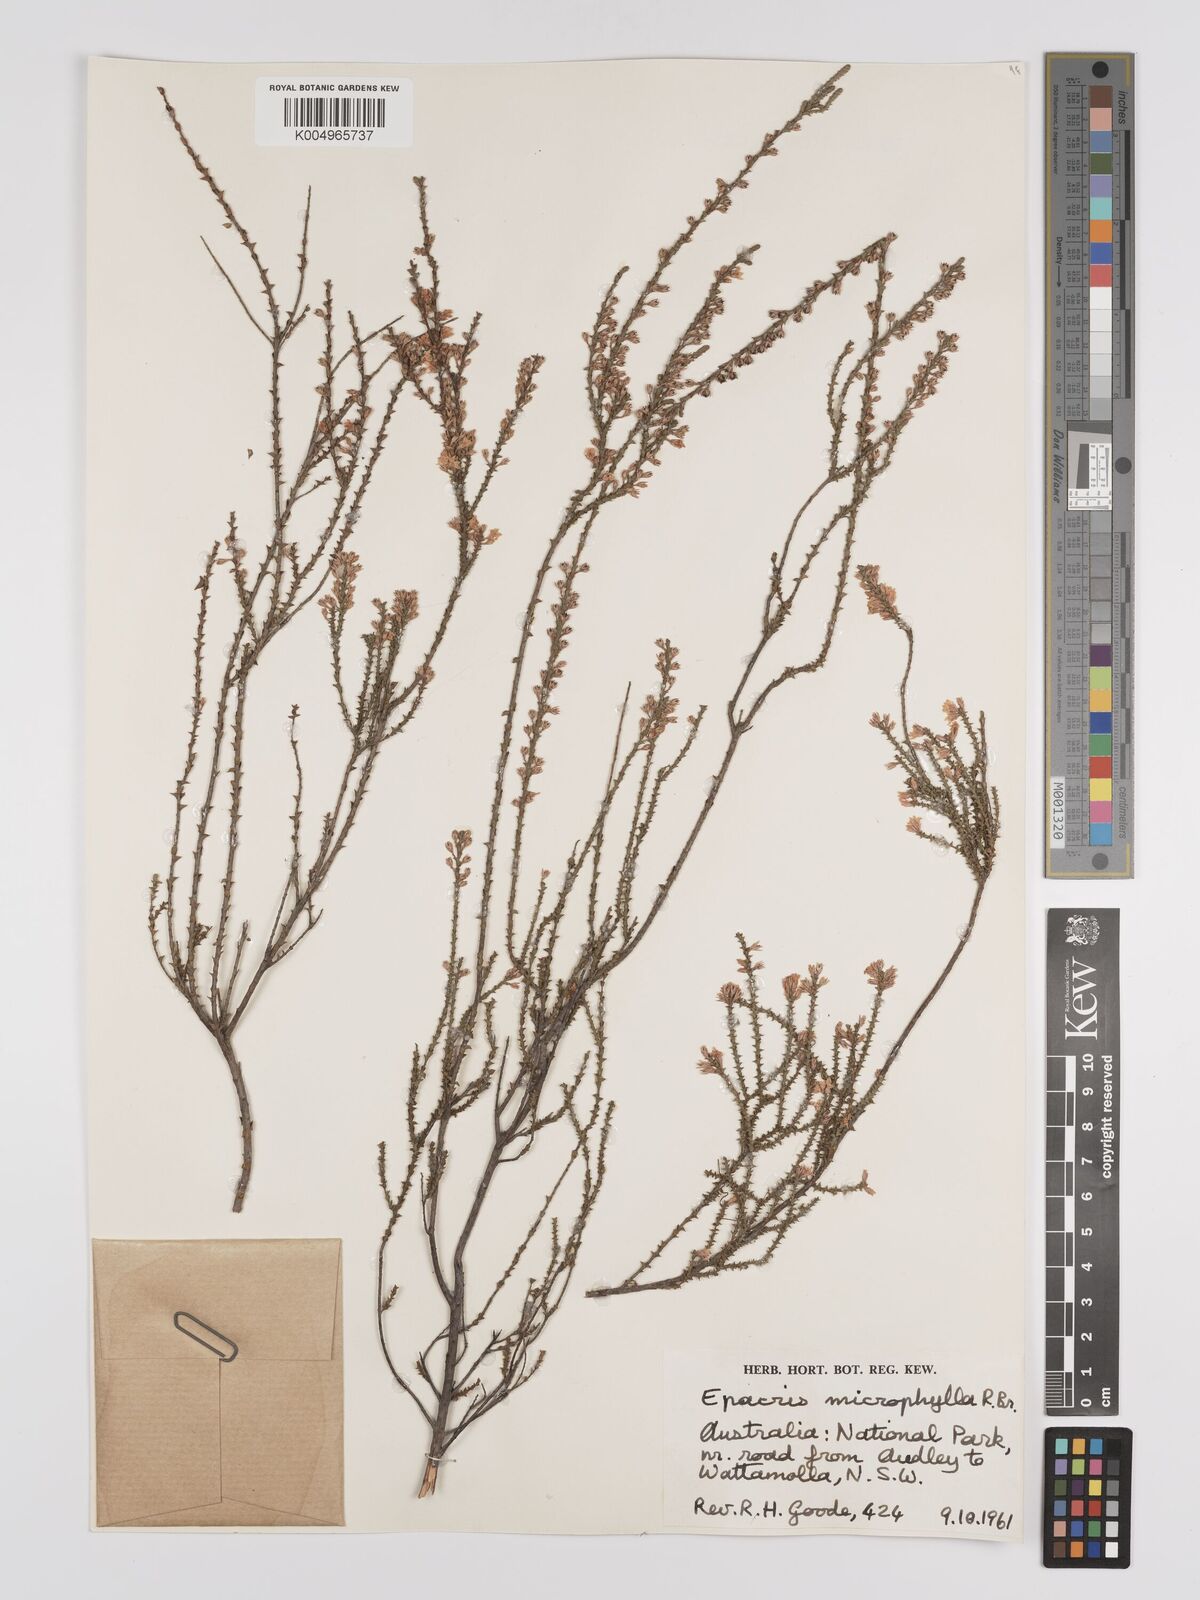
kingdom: Plantae
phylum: Tracheophyta
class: Magnoliopsida
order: Ericales
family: Ericaceae
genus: Epacris
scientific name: Epacris
